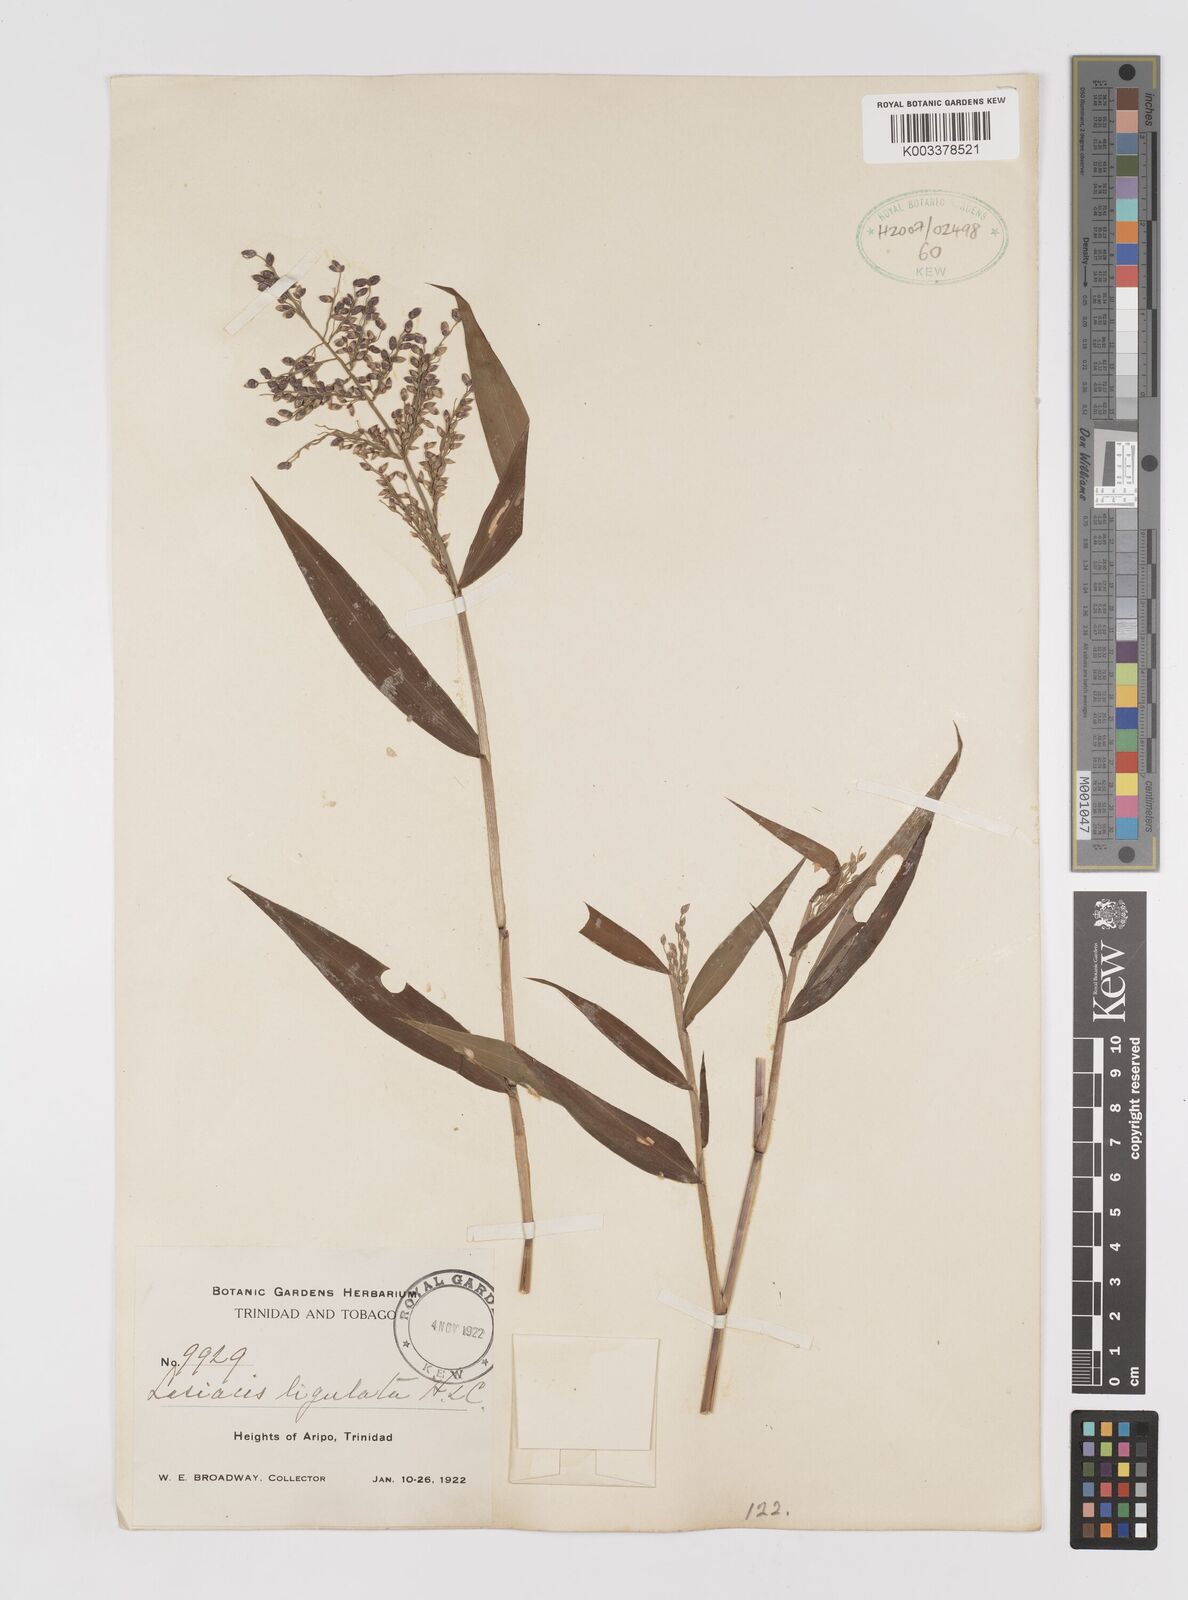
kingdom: Plantae
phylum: Tracheophyta
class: Liliopsida
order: Poales
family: Poaceae
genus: Lasiacis
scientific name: Lasiacis ligulata
